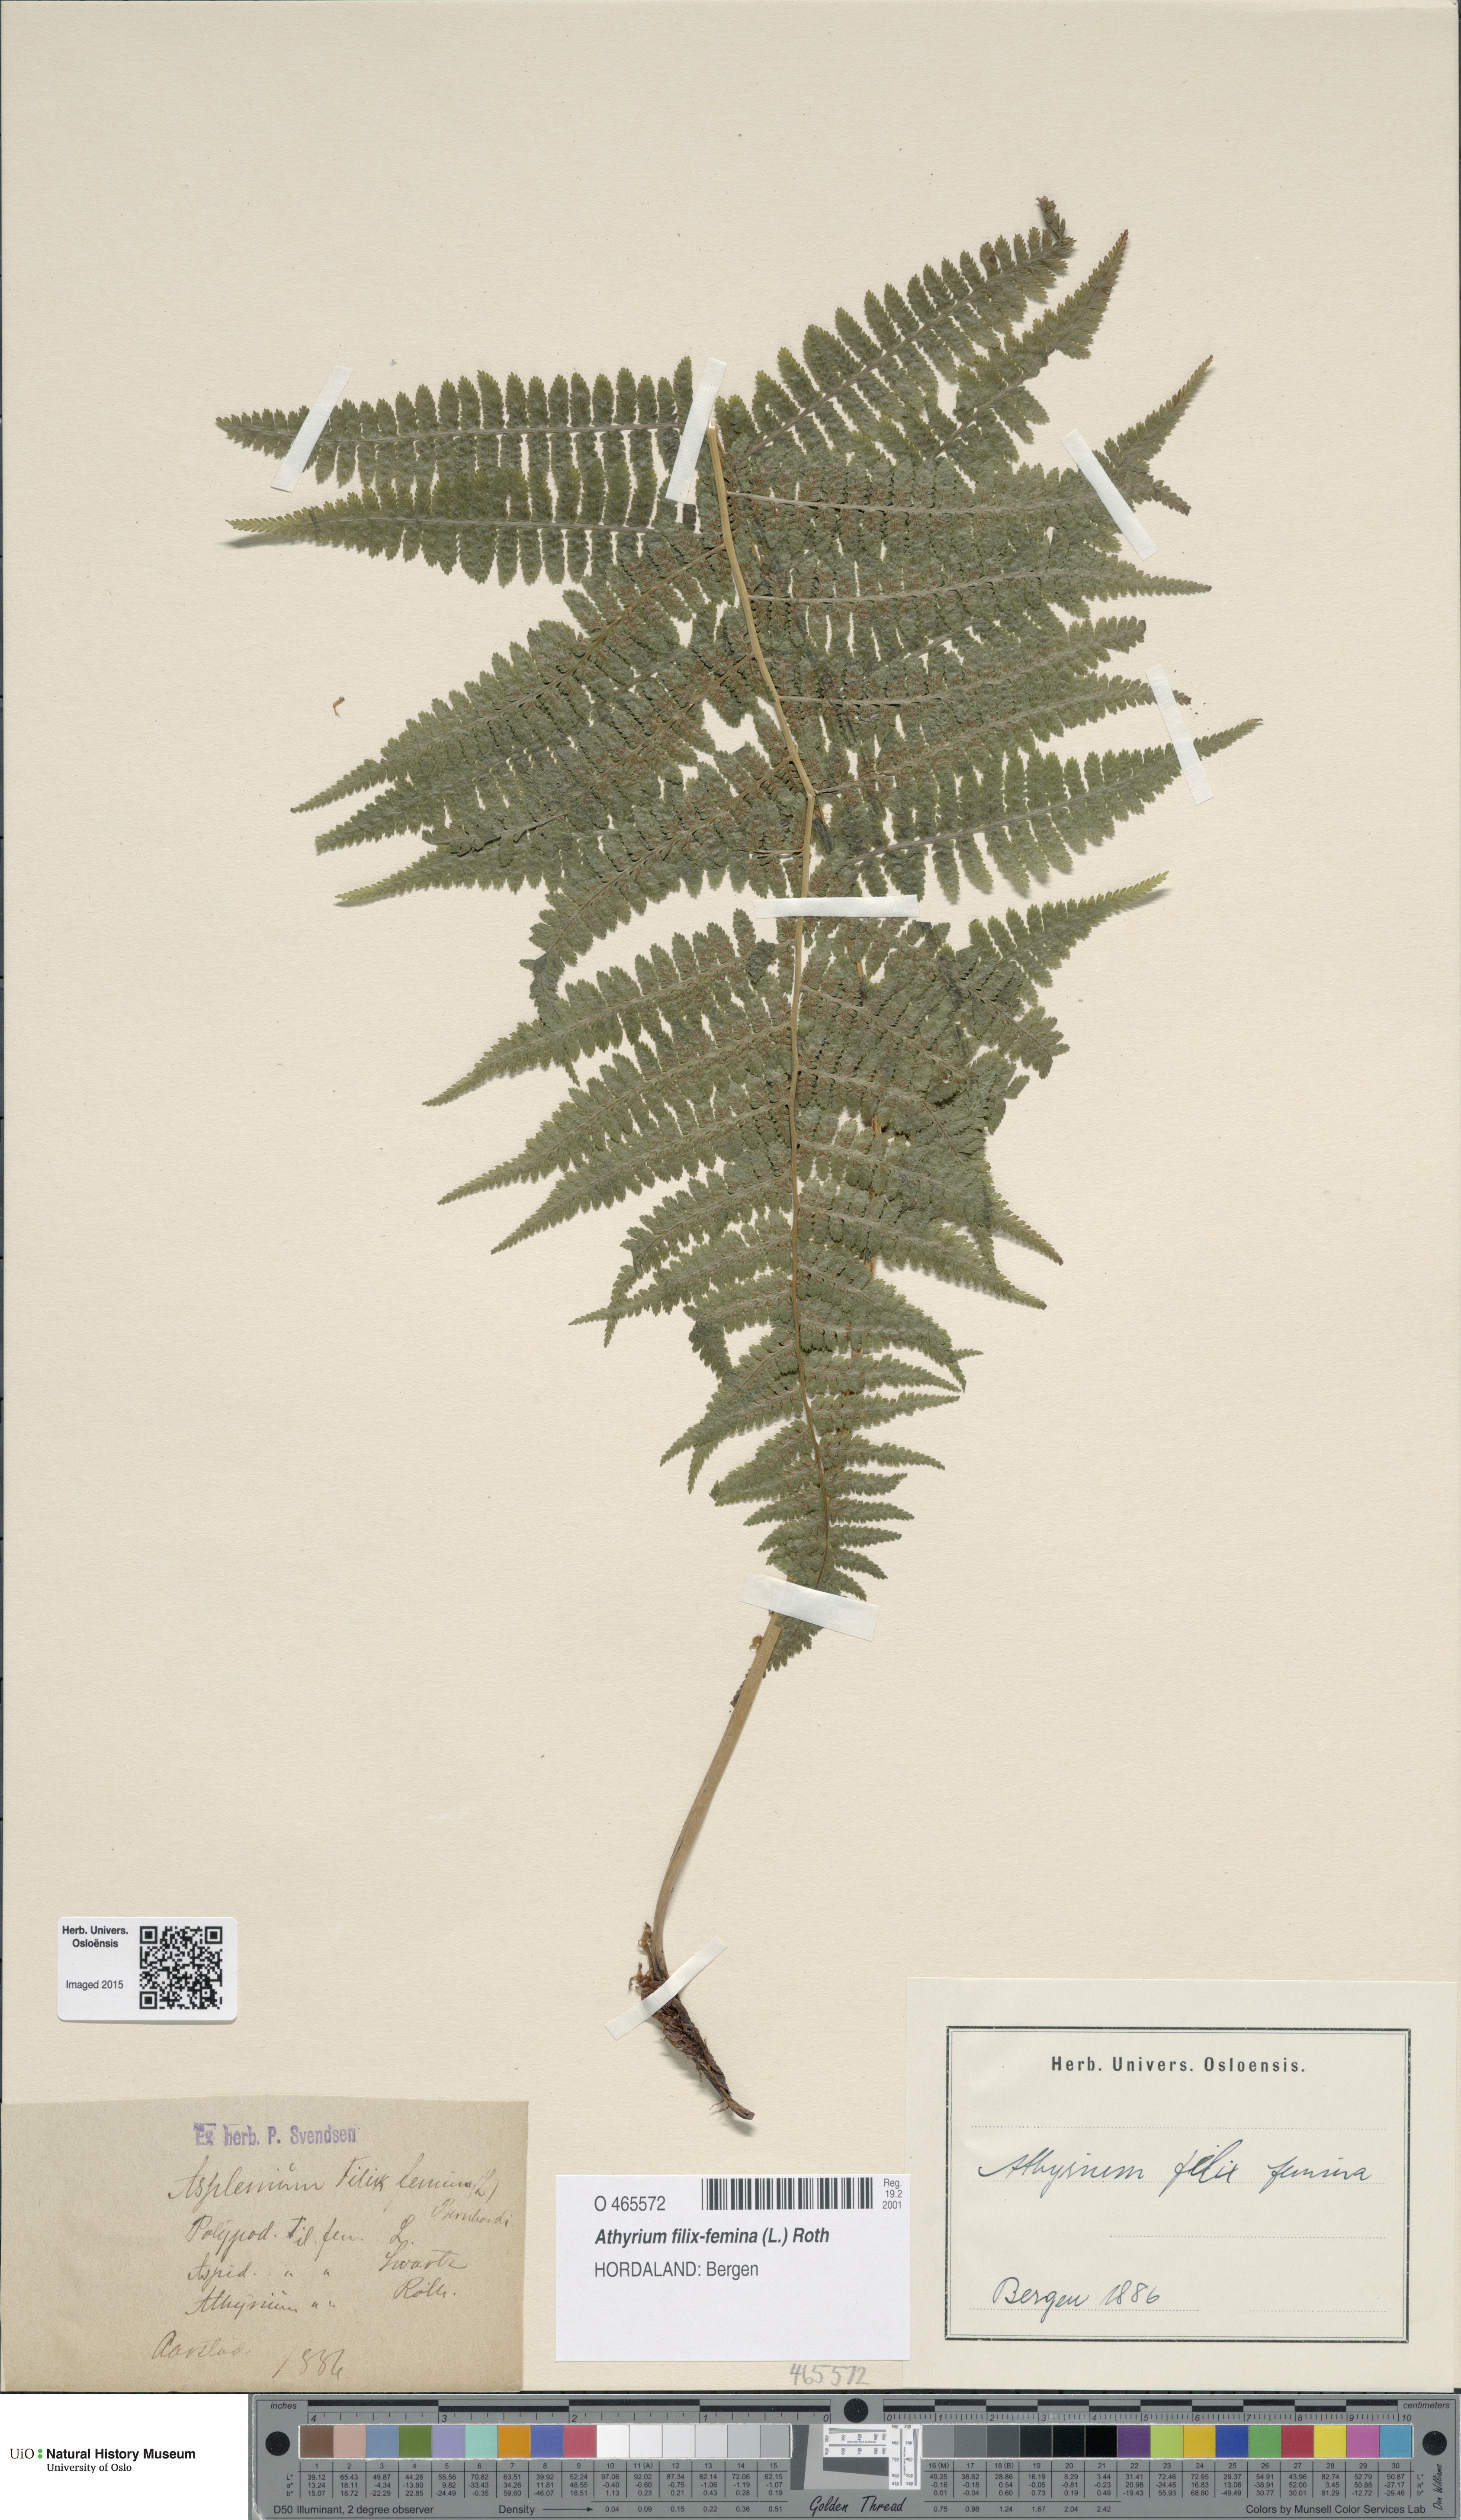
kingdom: Plantae
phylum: Tracheophyta
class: Polypodiopsida
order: Polypodiales
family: Athyriaceae
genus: Athyrium
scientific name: Athyrium filix-femina
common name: Lady fern
